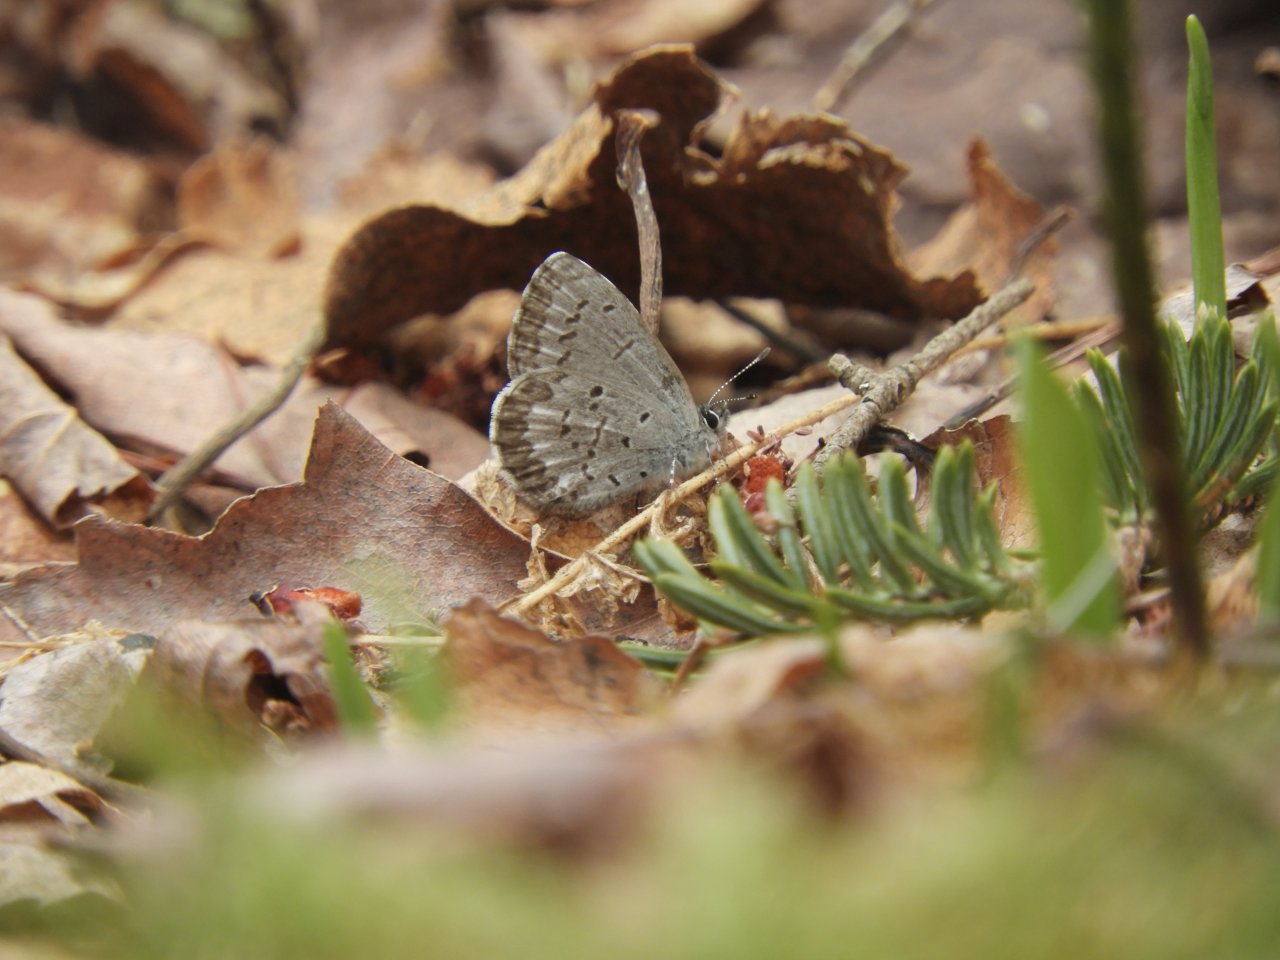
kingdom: Animalia
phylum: Arthropoda
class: Insecta
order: Lepidoptera
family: Lycaenidae
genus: Celastrina
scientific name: Celastrina lucia
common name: Northern Spring Azure
